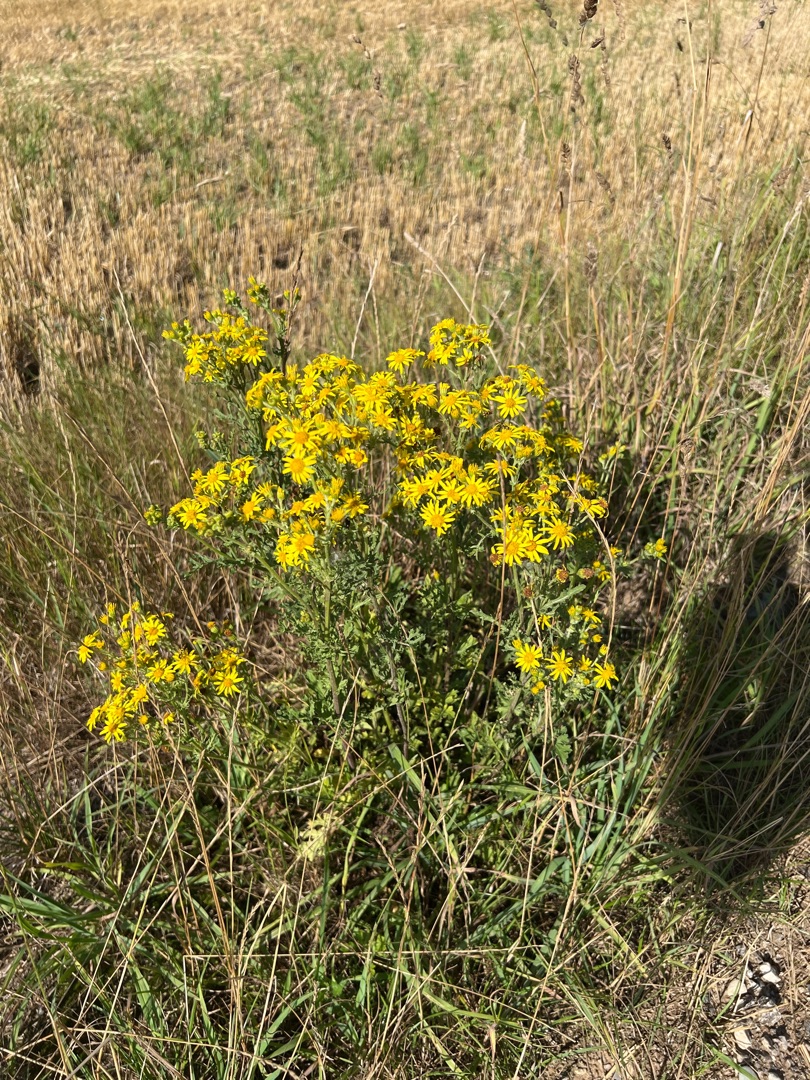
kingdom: Plantae
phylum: Tracheophyta
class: Magnoliopsida
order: Asterales
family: Asteraceae
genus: Jacobaea
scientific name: Jacobaea vulgaris
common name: Eng-brandbæger
